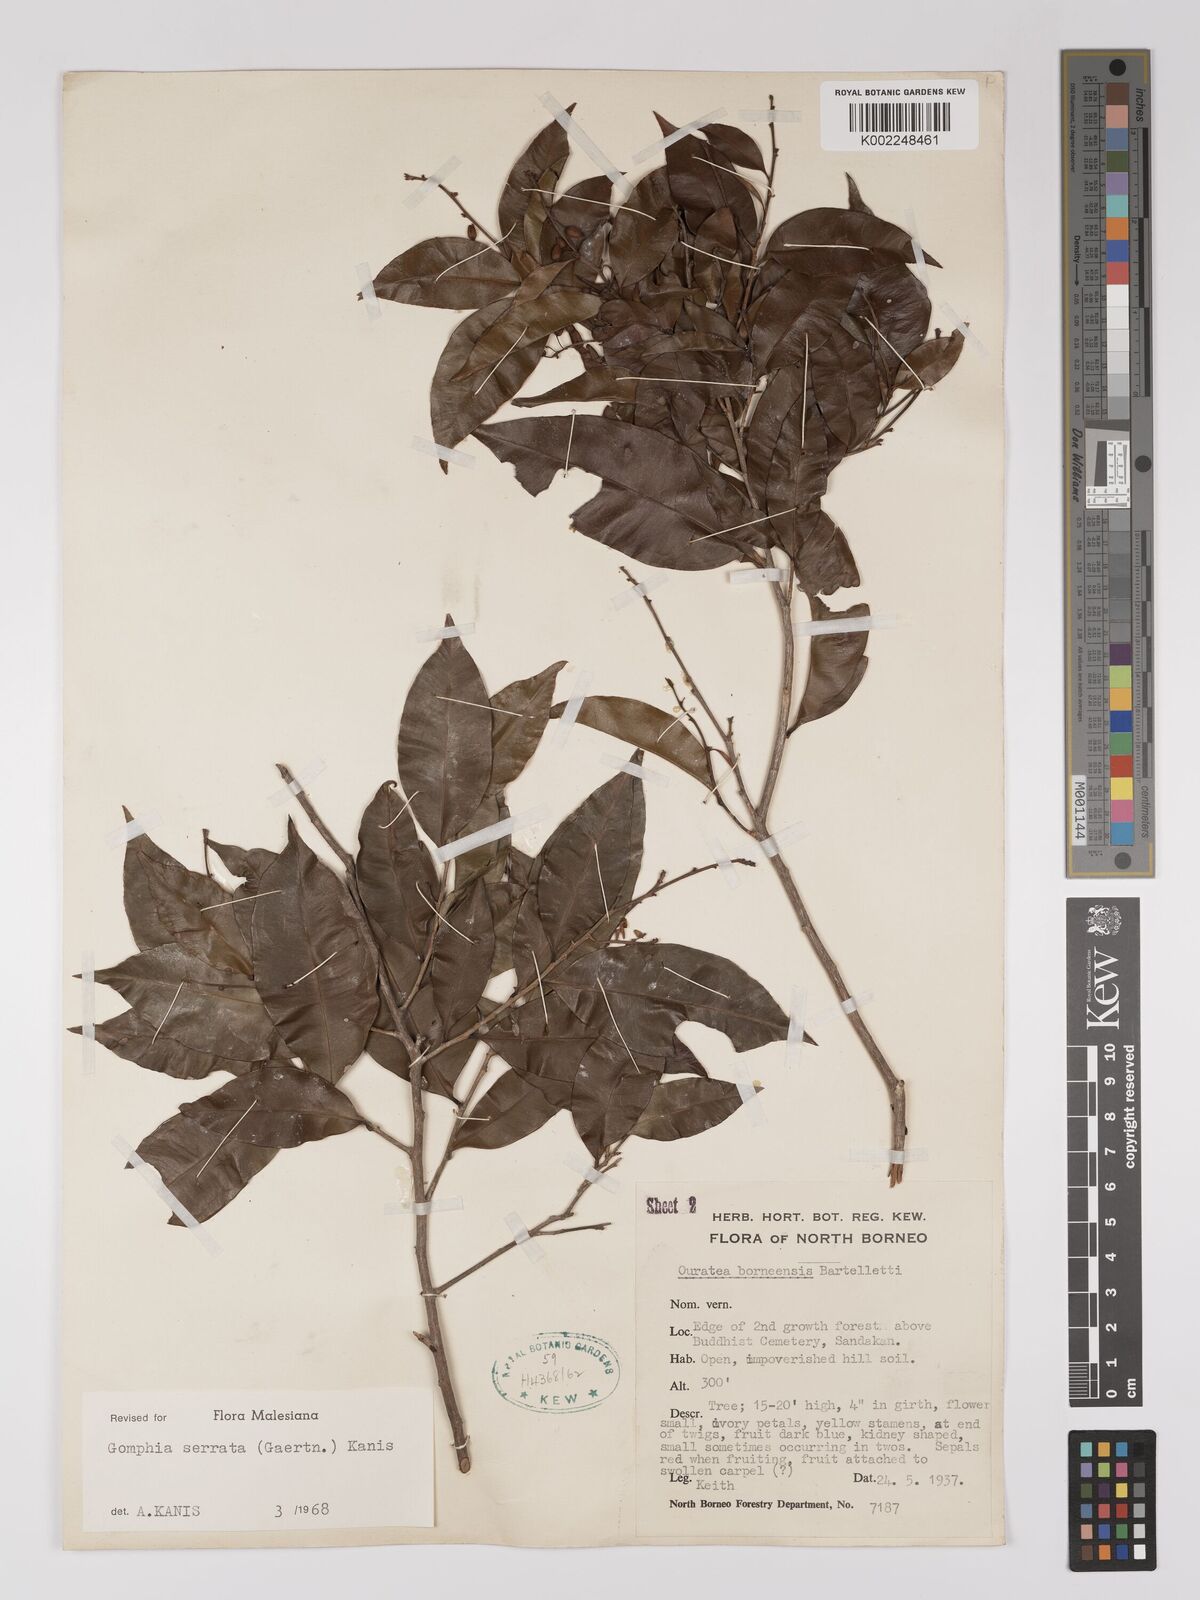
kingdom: Plantae
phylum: Tracheophyta
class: Magnoliopsida
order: Malpighiales
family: Ochnaceae
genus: Gomphia
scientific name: Gomphia serrata
